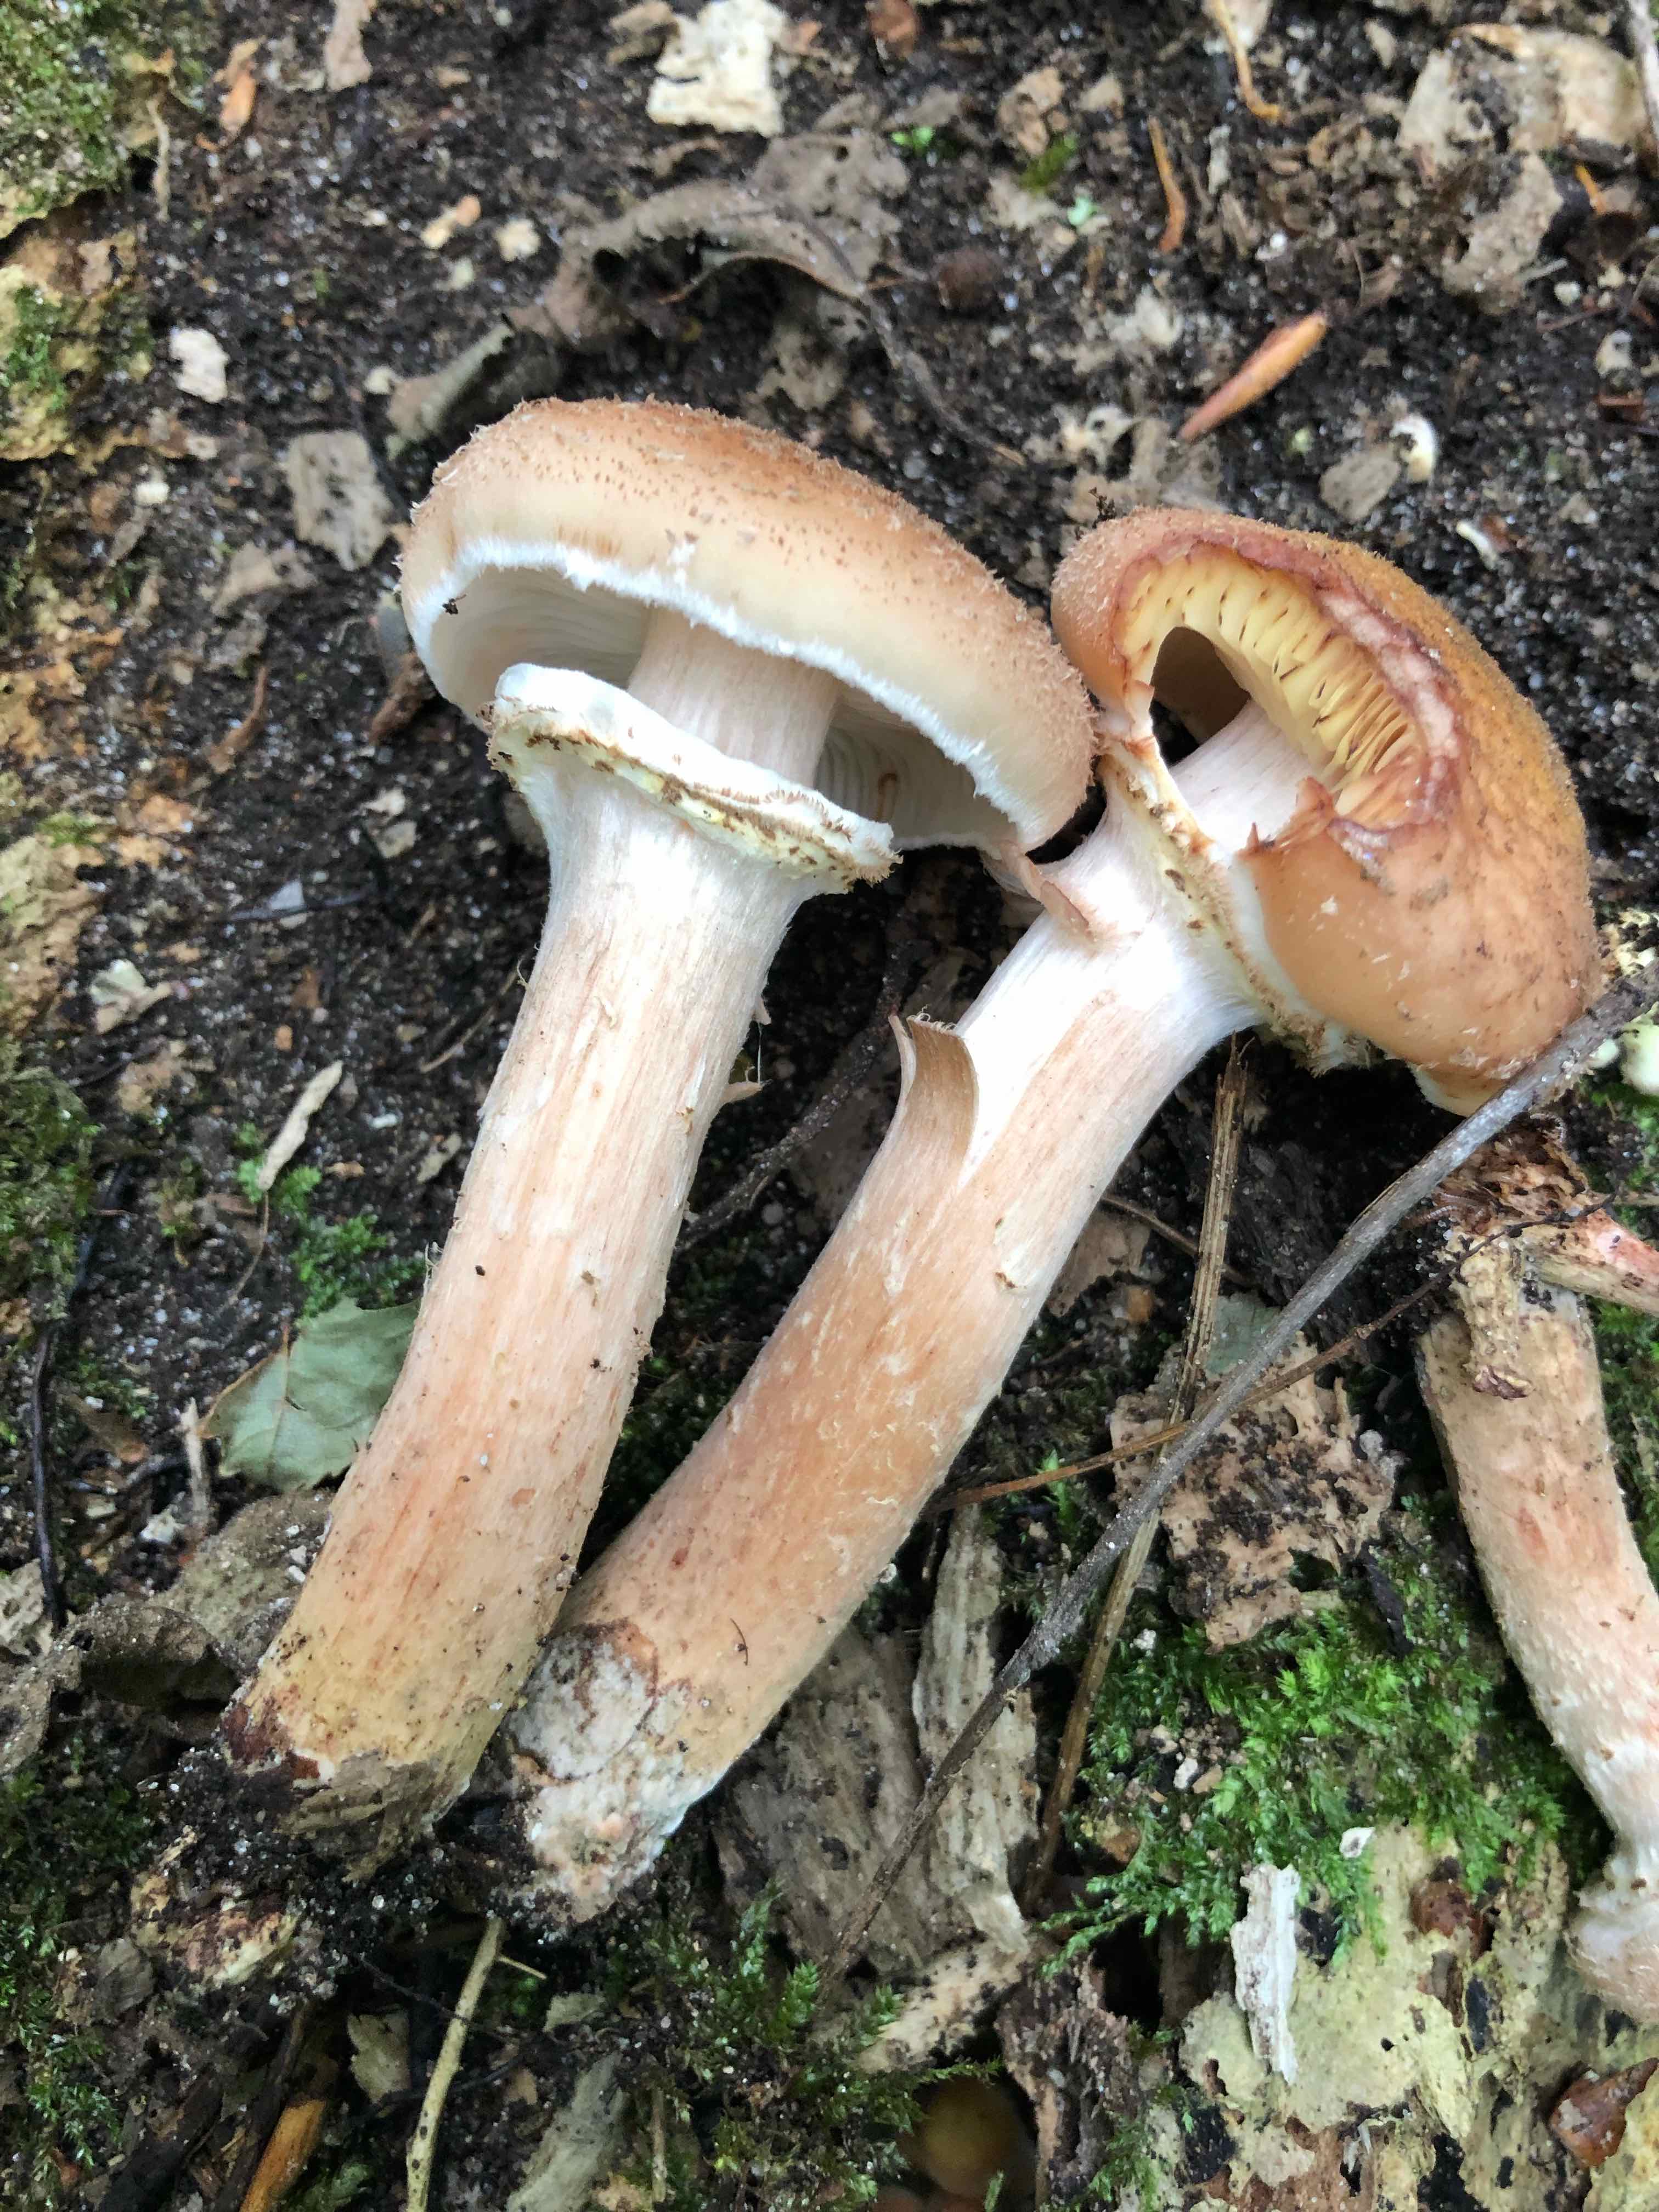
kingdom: Fungi
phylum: Basidiomycota
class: Agaricomycetes
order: Agaricales
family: Physalacriaceae
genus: Armillaria
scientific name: Armillaria lutea
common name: køllestokket honningsvamp
